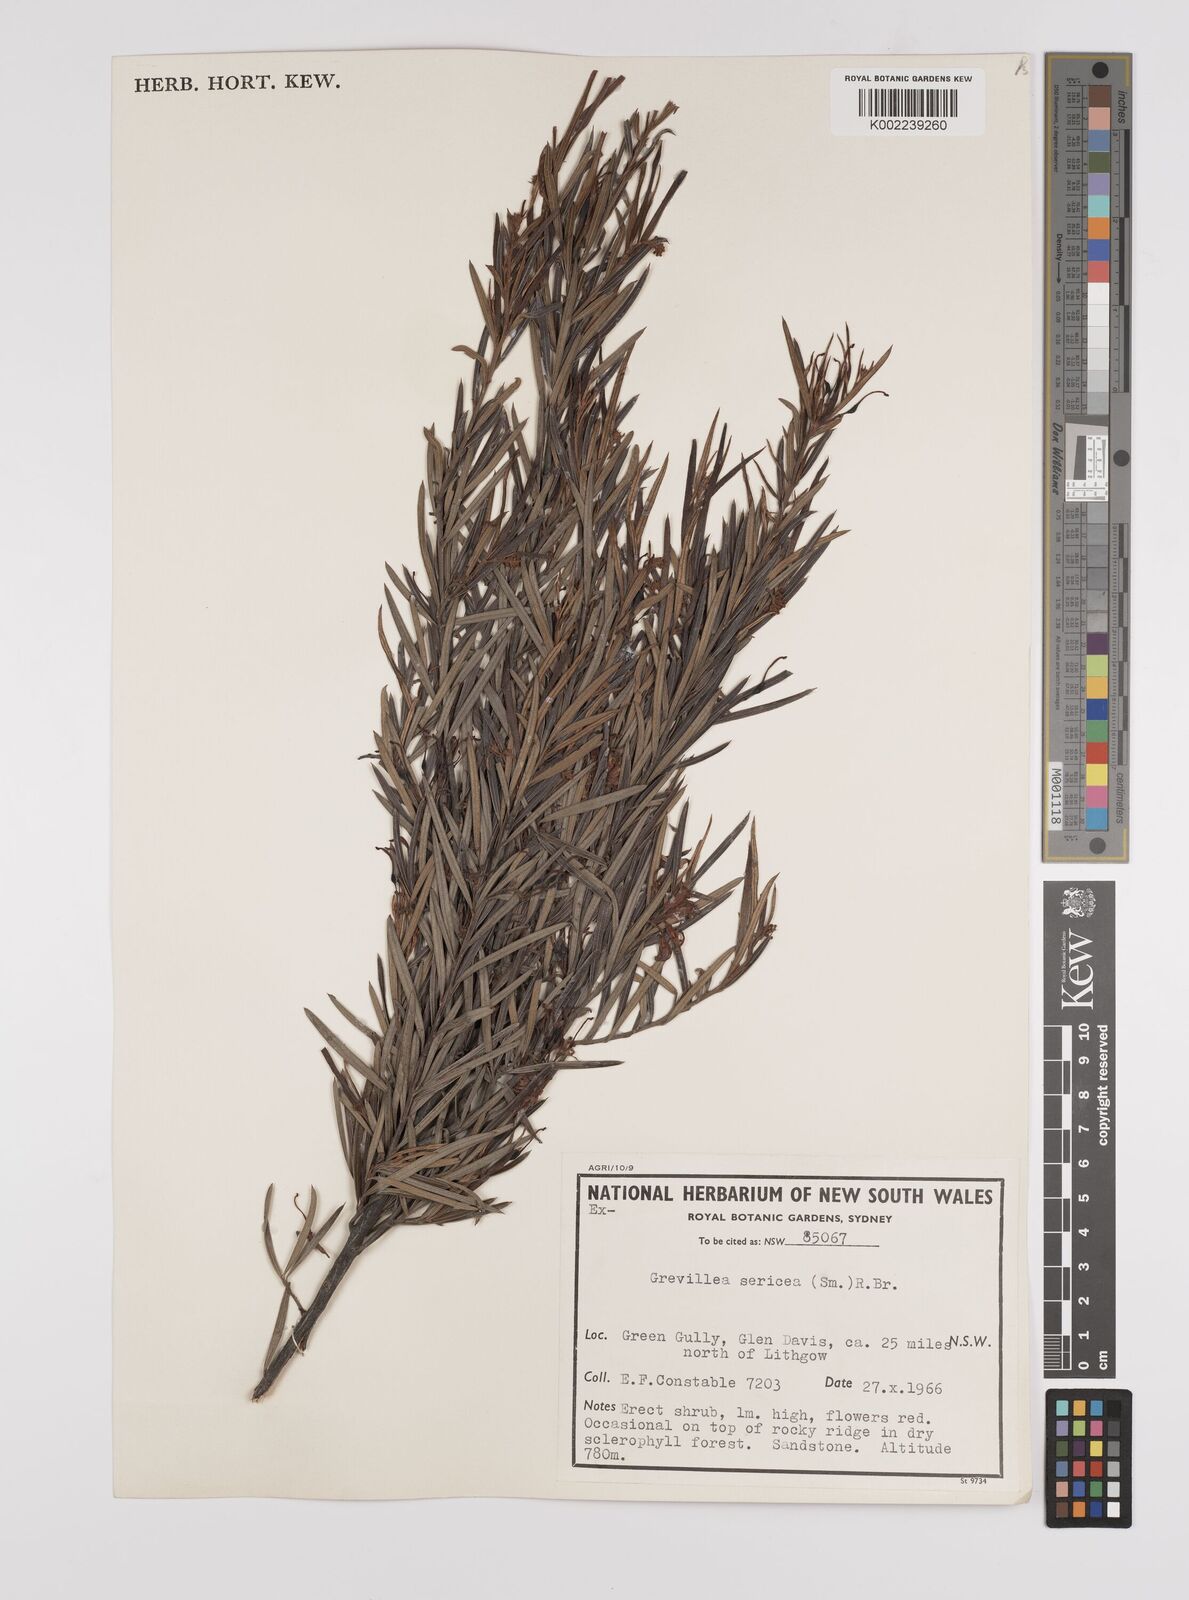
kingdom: Plantae
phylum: Tracheophyta
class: Magnoliopsida
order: Proteales
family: Proteaceae
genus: Grevillea
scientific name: Grevillea sericea
